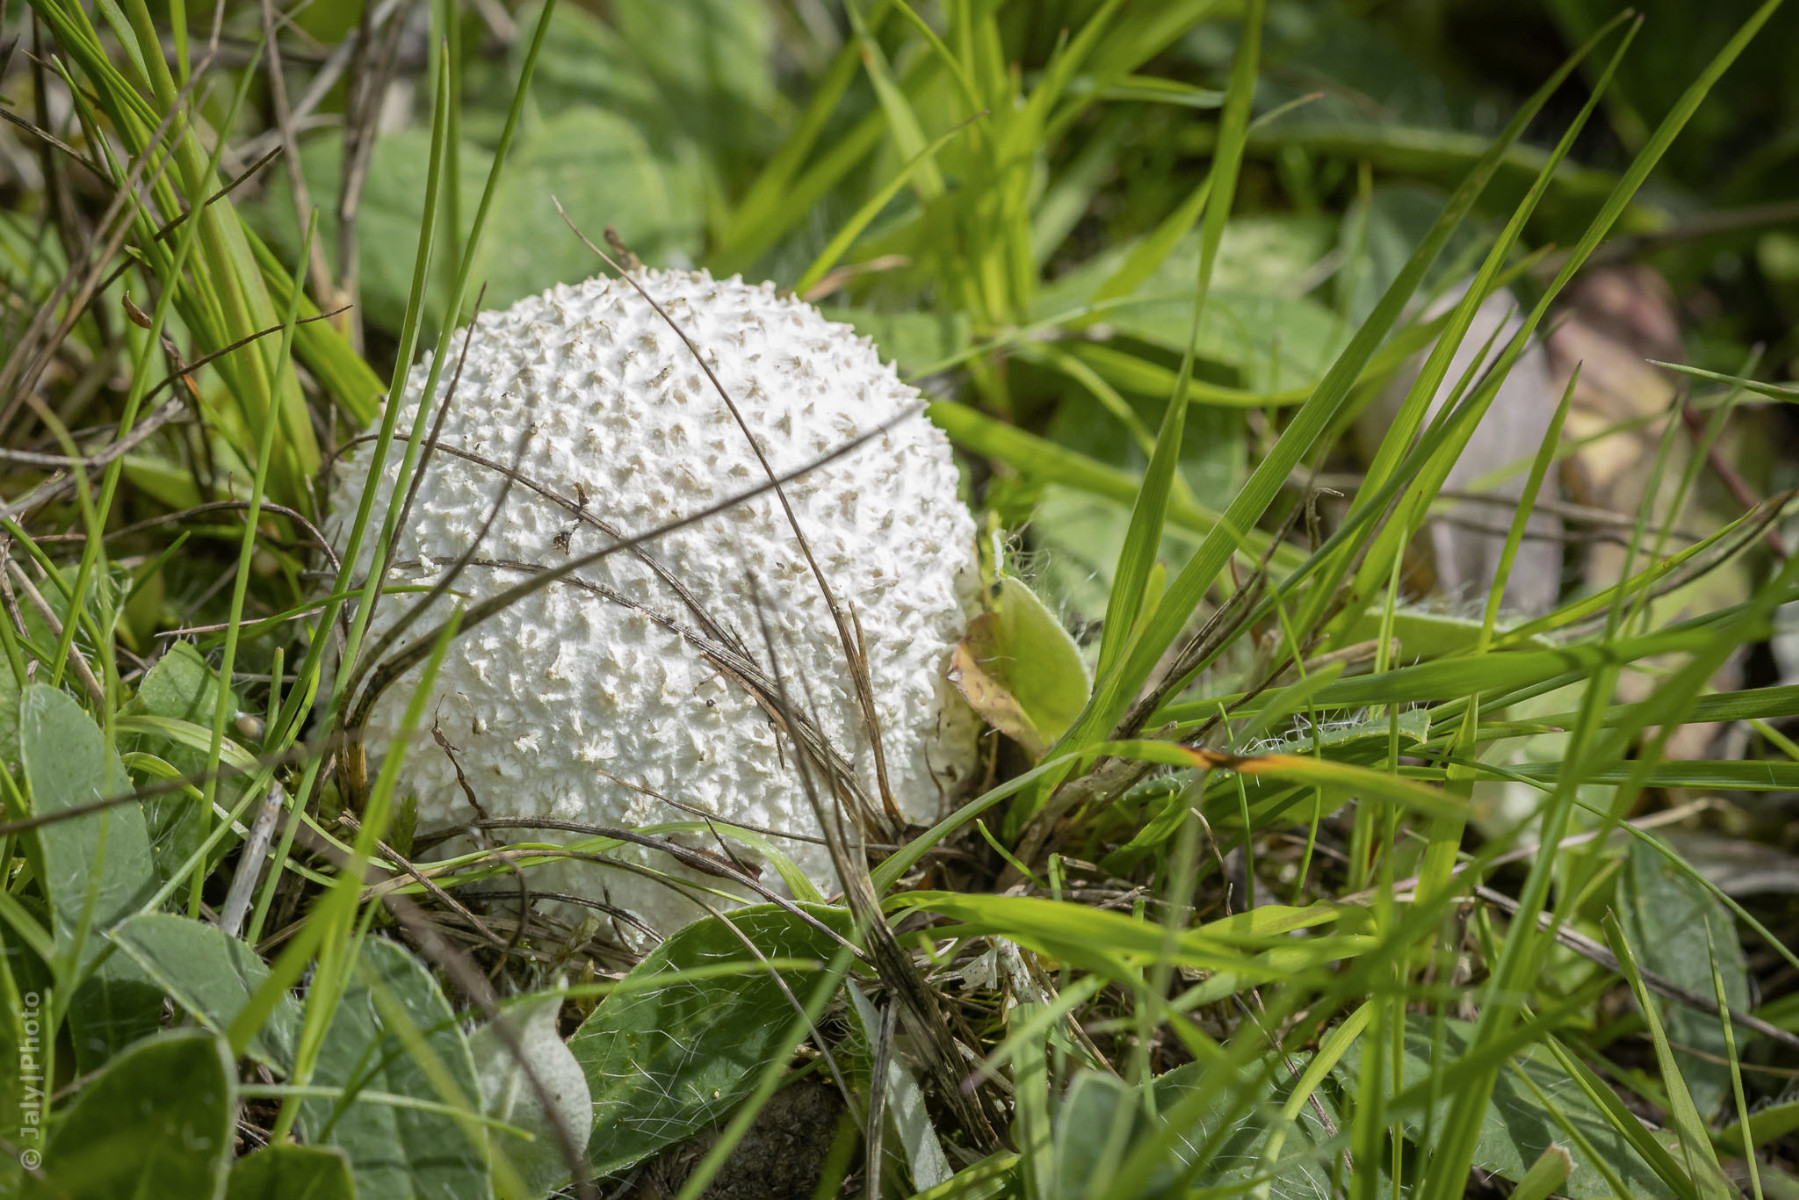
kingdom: Fungi
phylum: Basidiomycota
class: Agaricomycetes
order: Agaricales
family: Lycoperdaceae
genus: Bovistella
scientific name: Bovistella utriformis
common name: skællet støvbold
